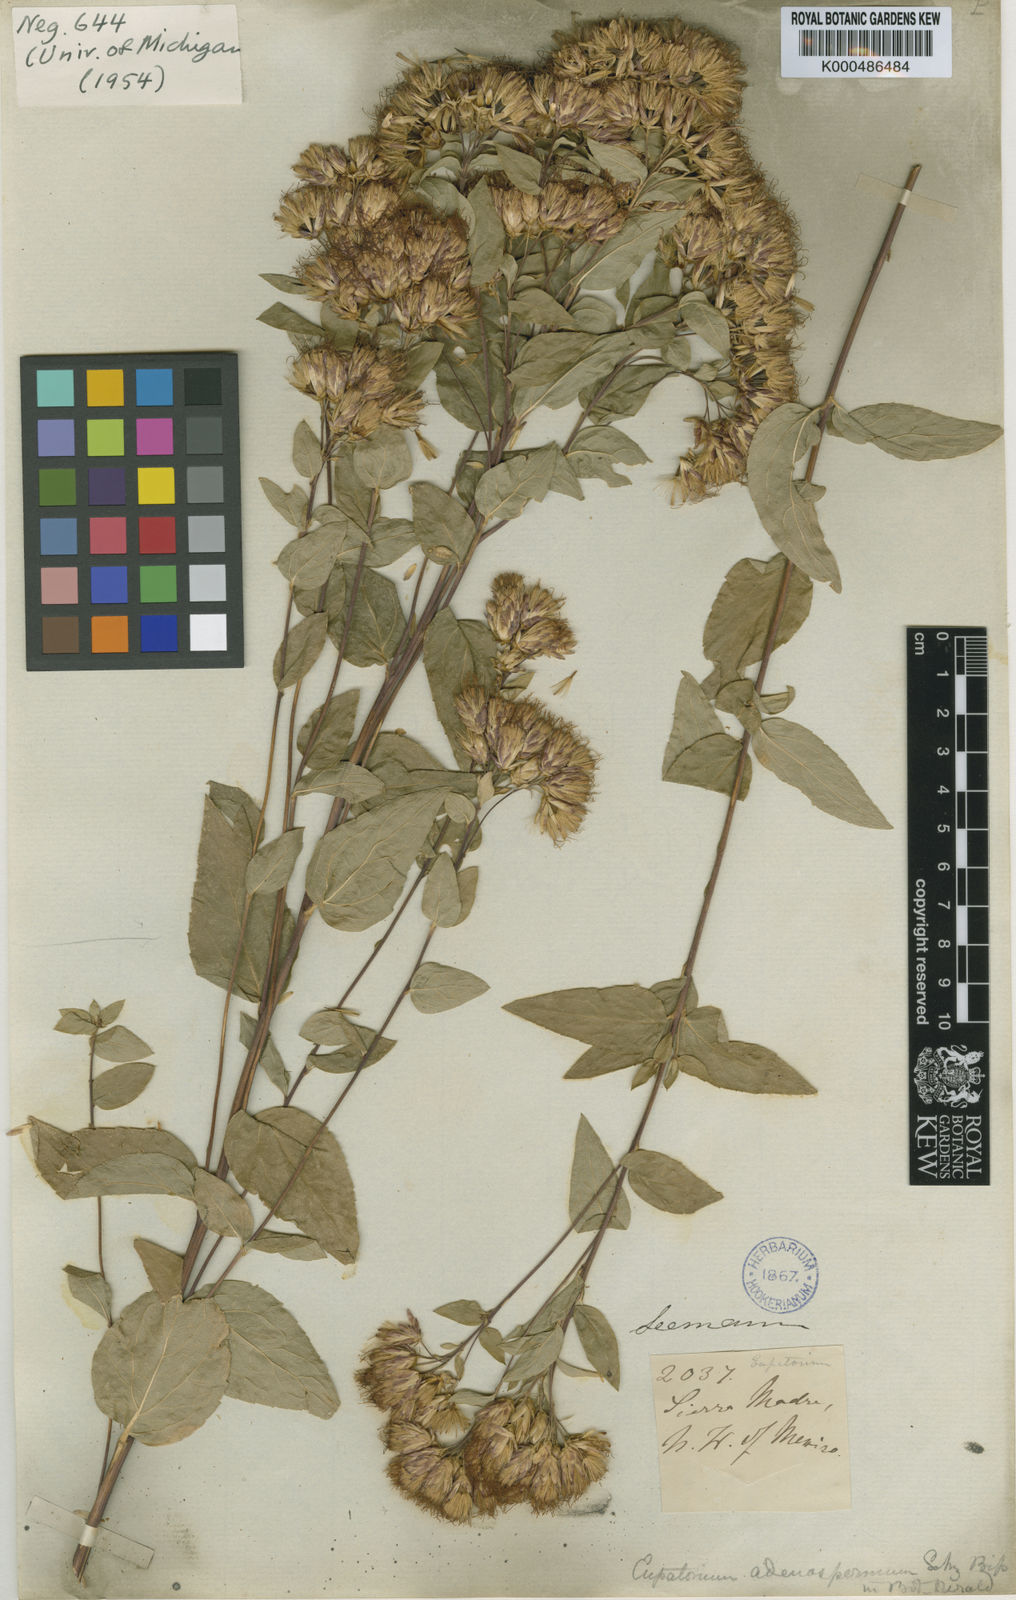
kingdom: Plantae
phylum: Tracheophyta
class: Magnoliopsida
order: Asterales
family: Asteraceae
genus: Steviopsis
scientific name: Steviopsis adenosperma
